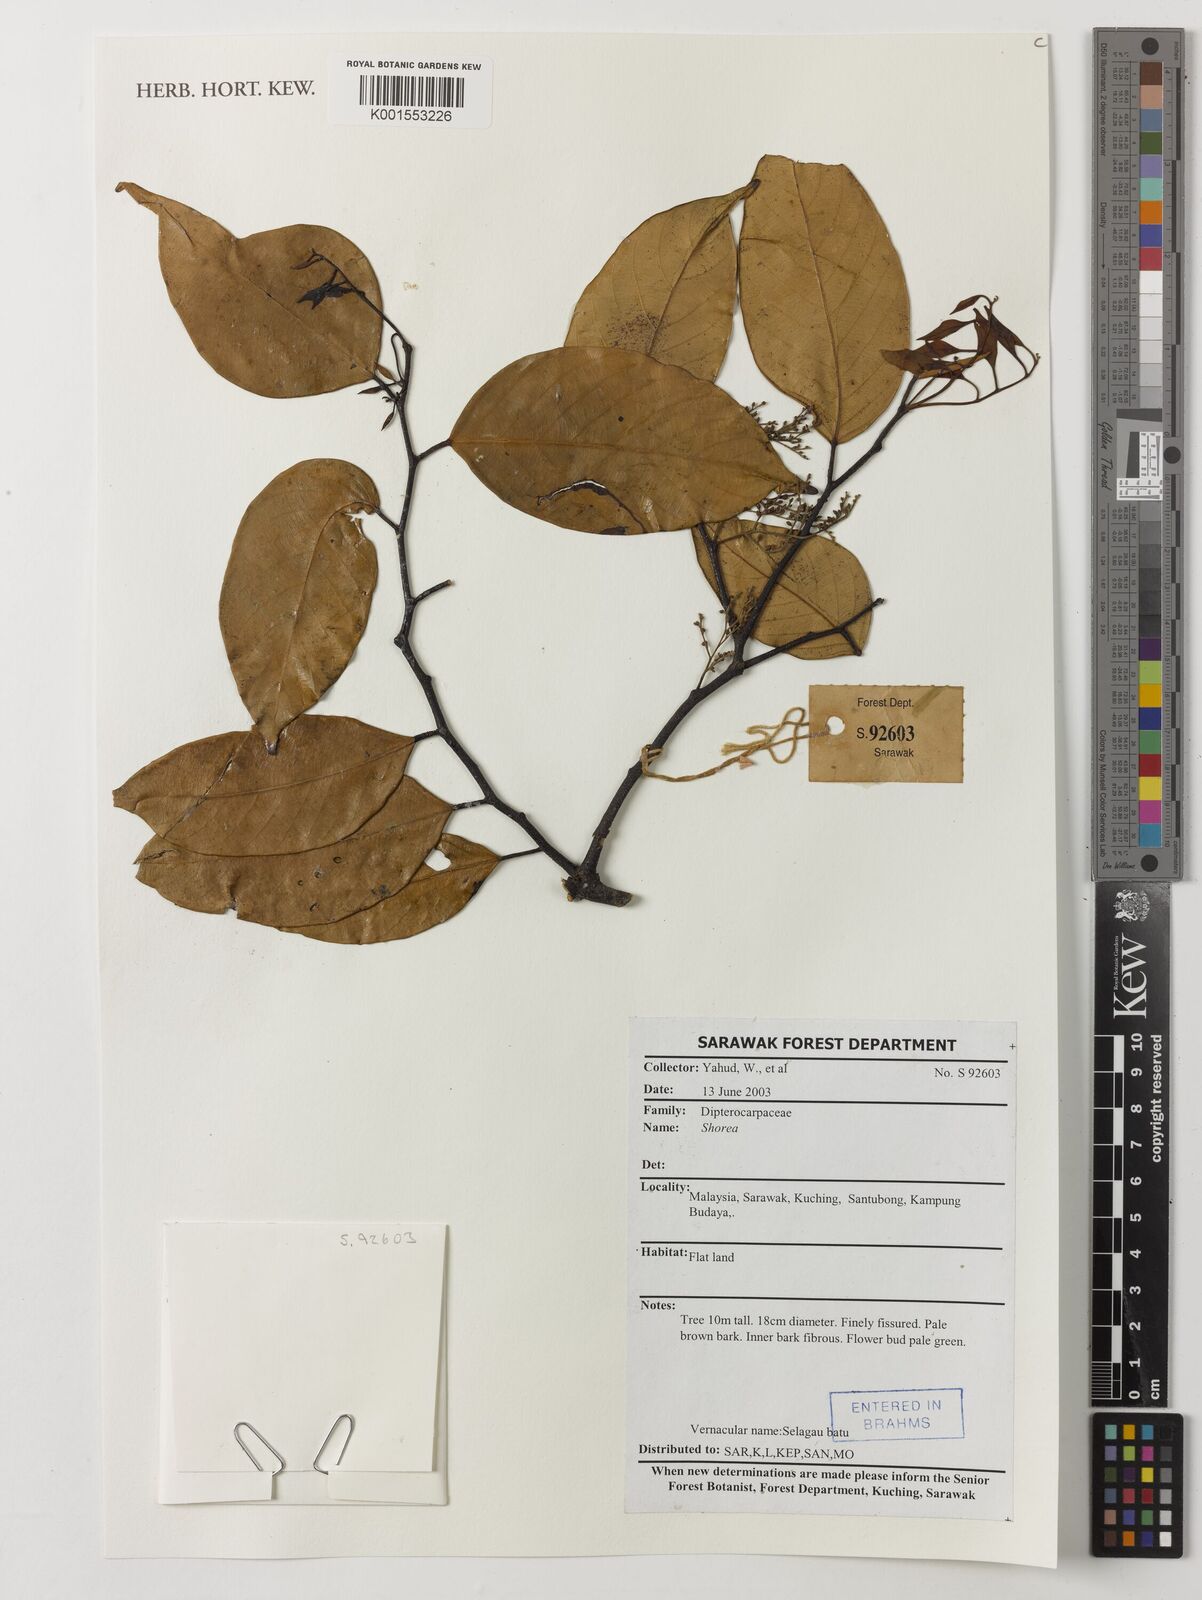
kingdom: Plantae
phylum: Tracheophyta
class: Magnoliopsida
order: Malvales
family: Dipterocarpaceae
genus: Shorea
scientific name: Shorea
